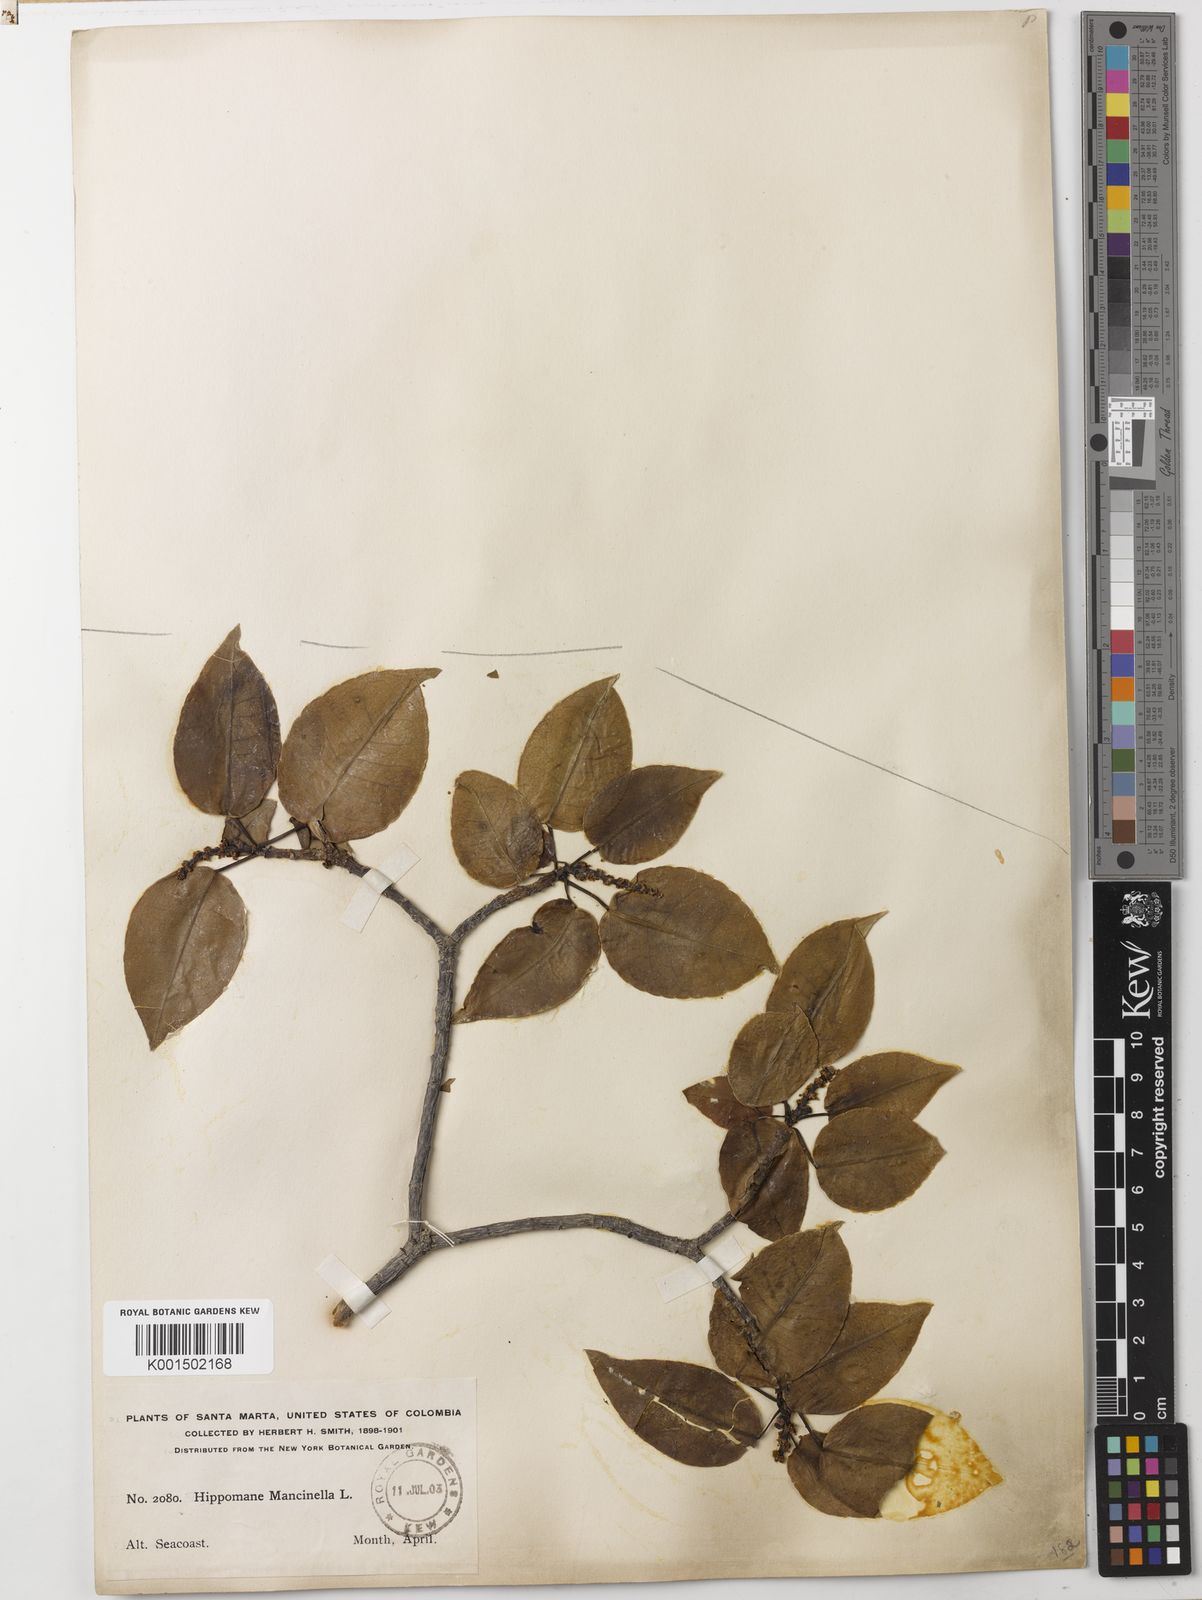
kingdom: Plantae
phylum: Tracheophyta
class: Magnoliopsida
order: Malpighiales
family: Euphorbiaceae
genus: Hippomane
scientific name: Hippomane mancinella
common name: Manchineel
